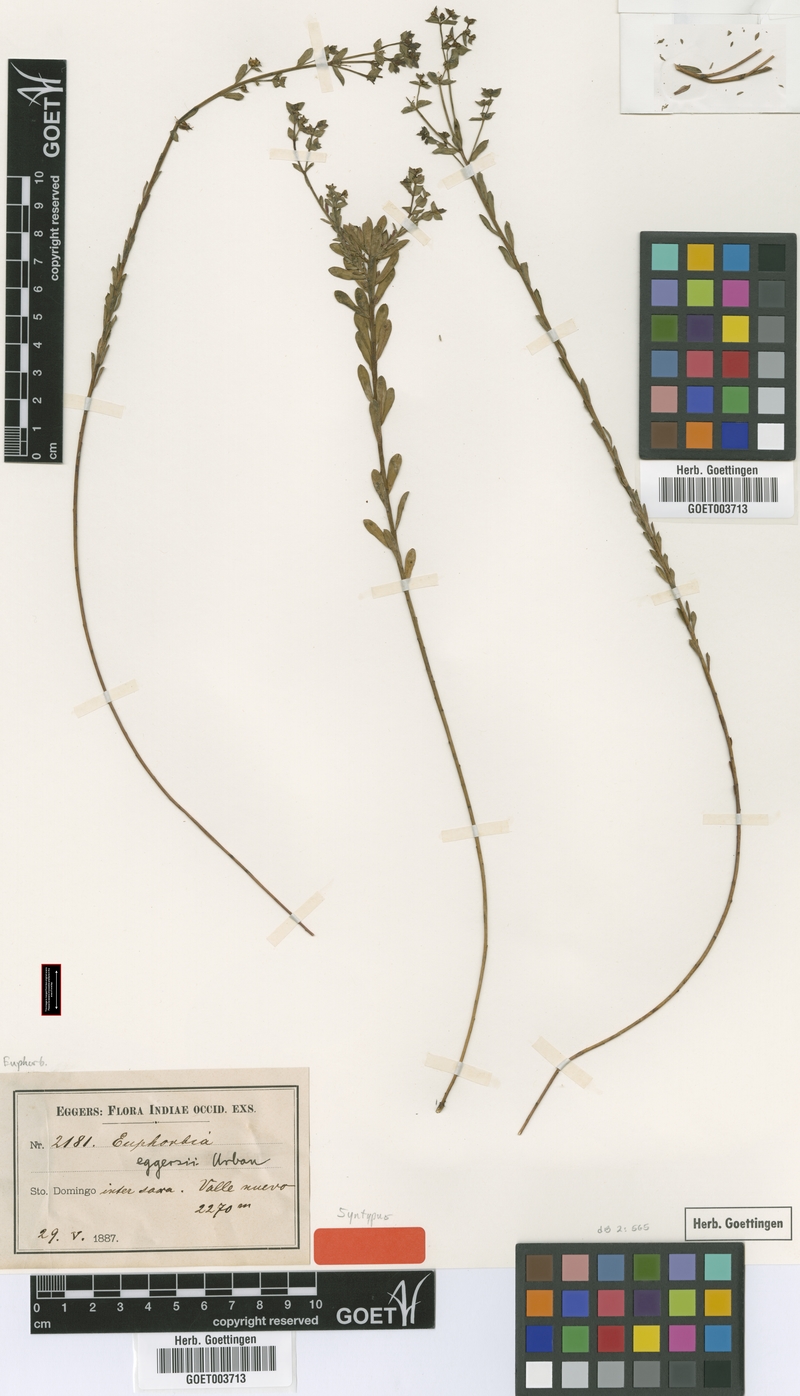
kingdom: Plantae
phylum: Tracheophyta
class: Magnoliopsida
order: Malpighiales
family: Euphorbiaceae
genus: Euphorbia
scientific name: Euphorbia eggersii
